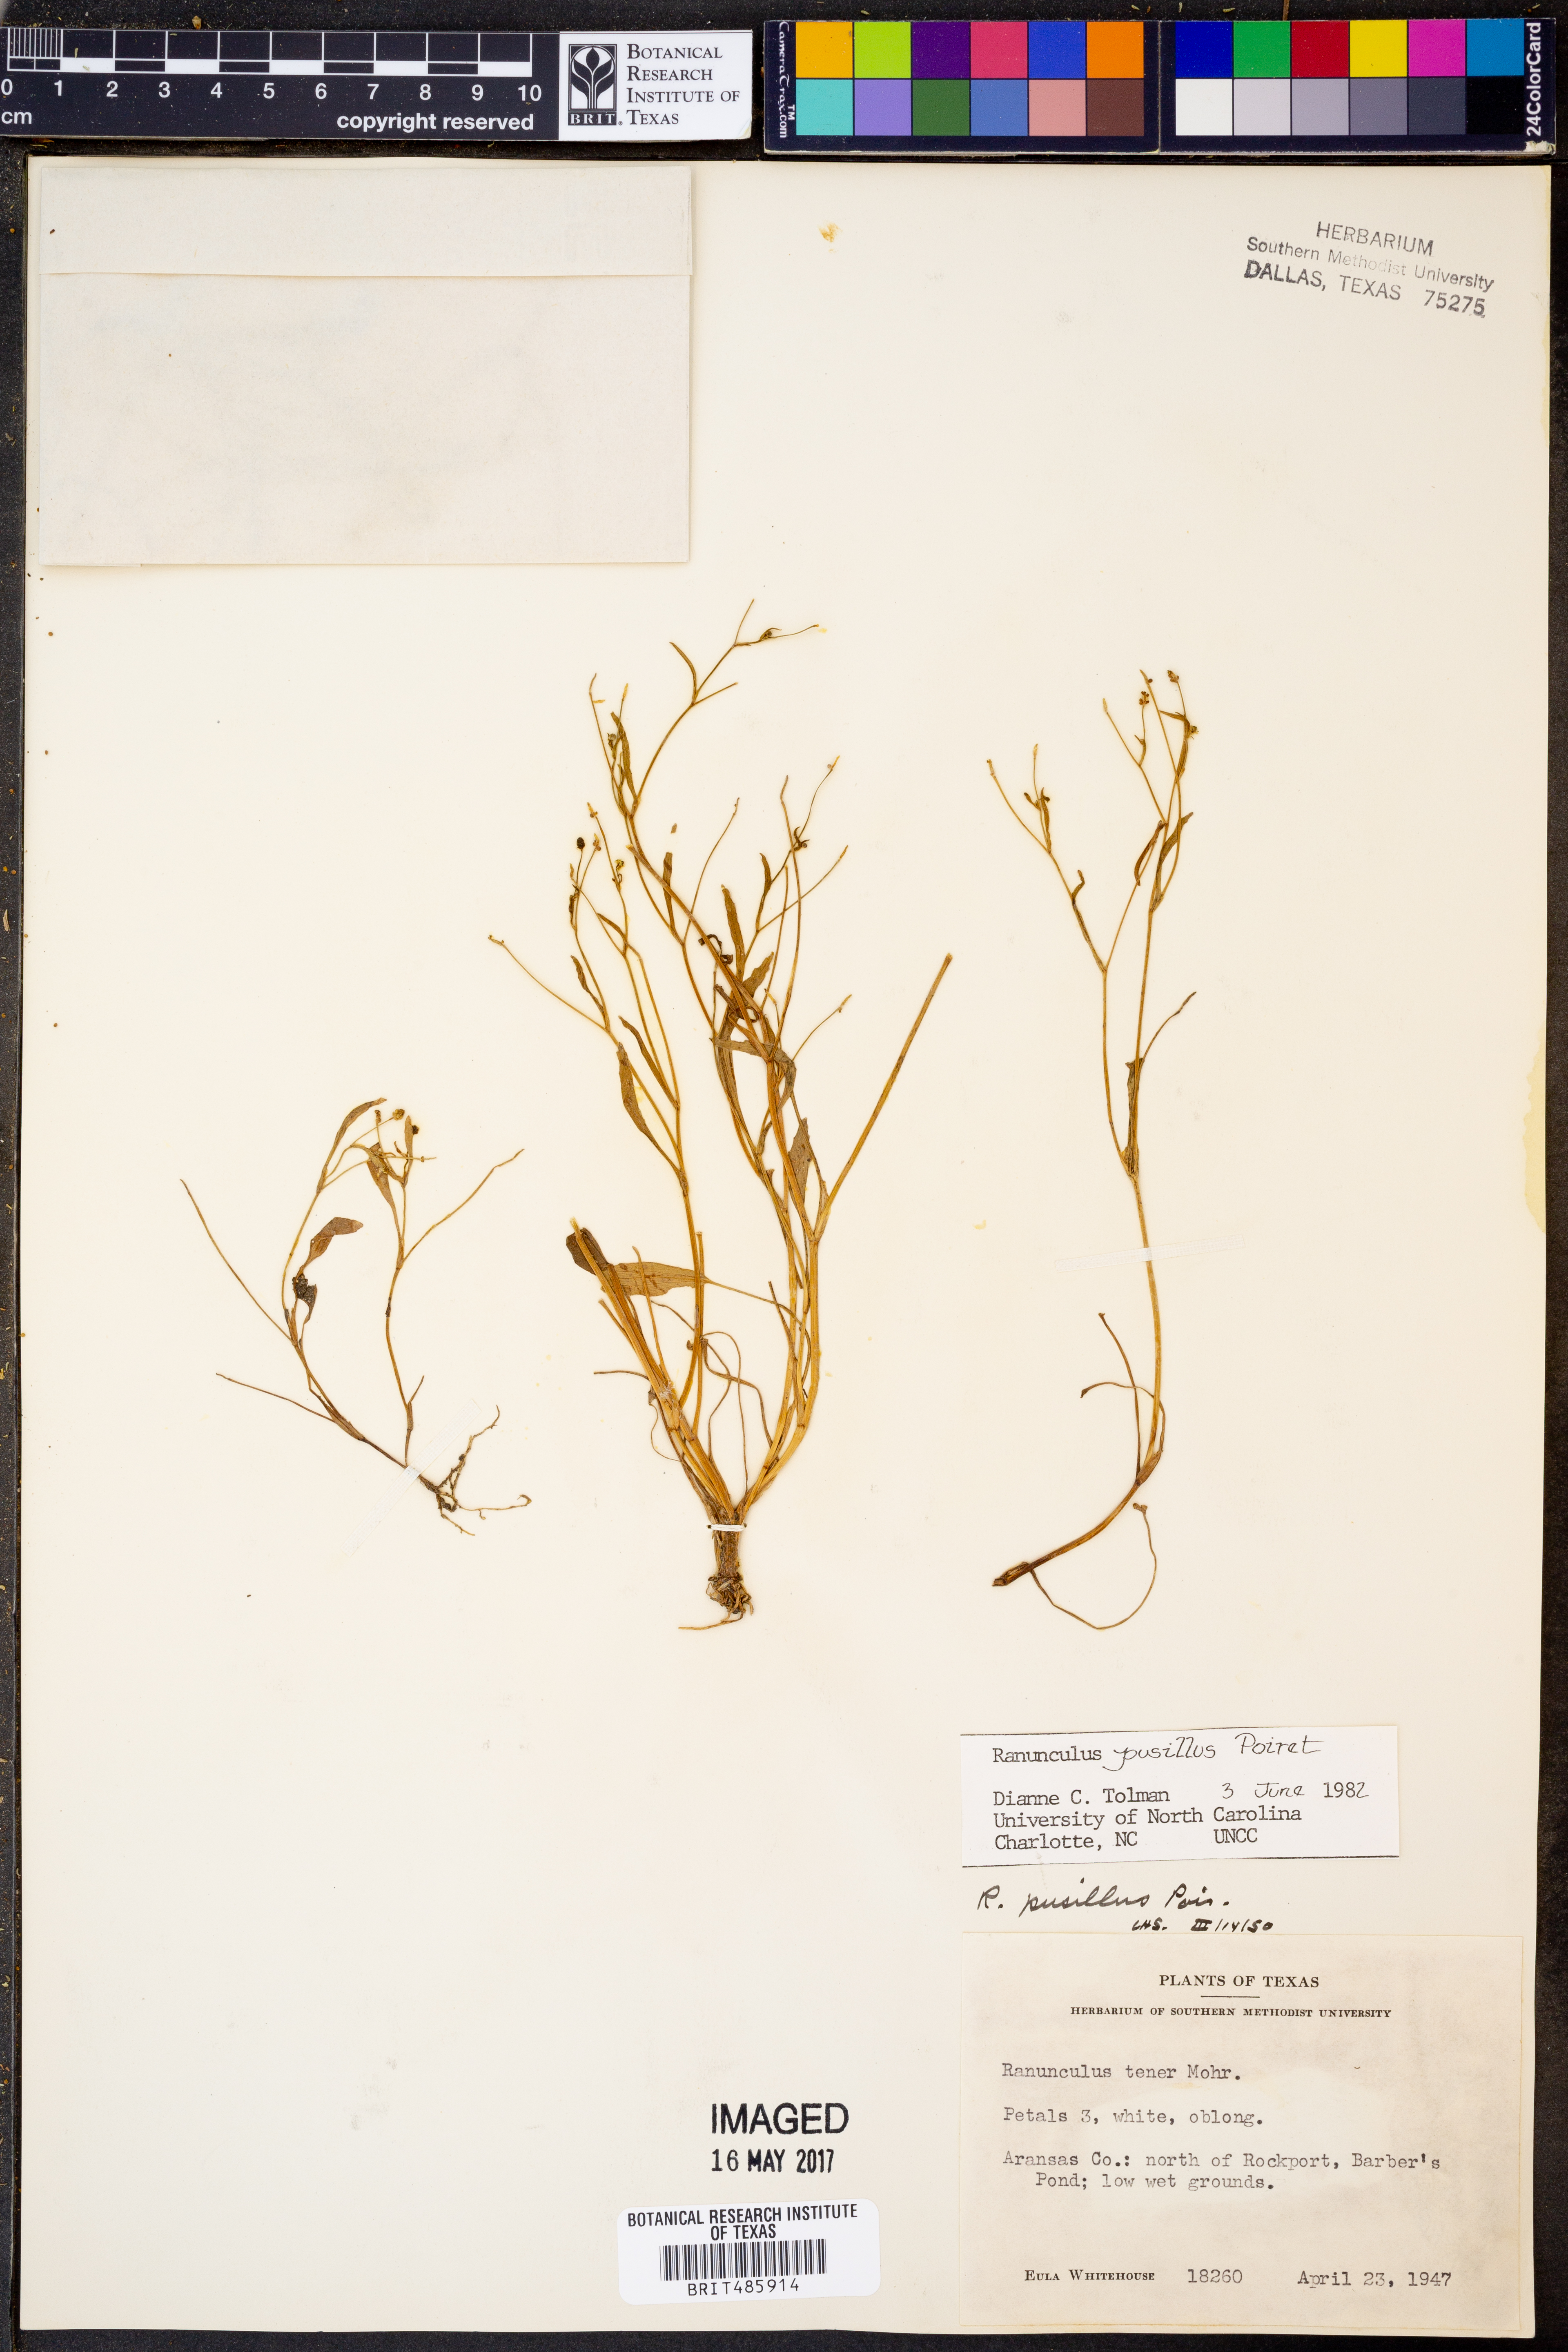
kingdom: Plantae
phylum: Tracheophyta
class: Magnoliopsida
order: Ranunculales
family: Ranunculaceae
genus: Ranunculus
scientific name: Ranunculus pusillus
